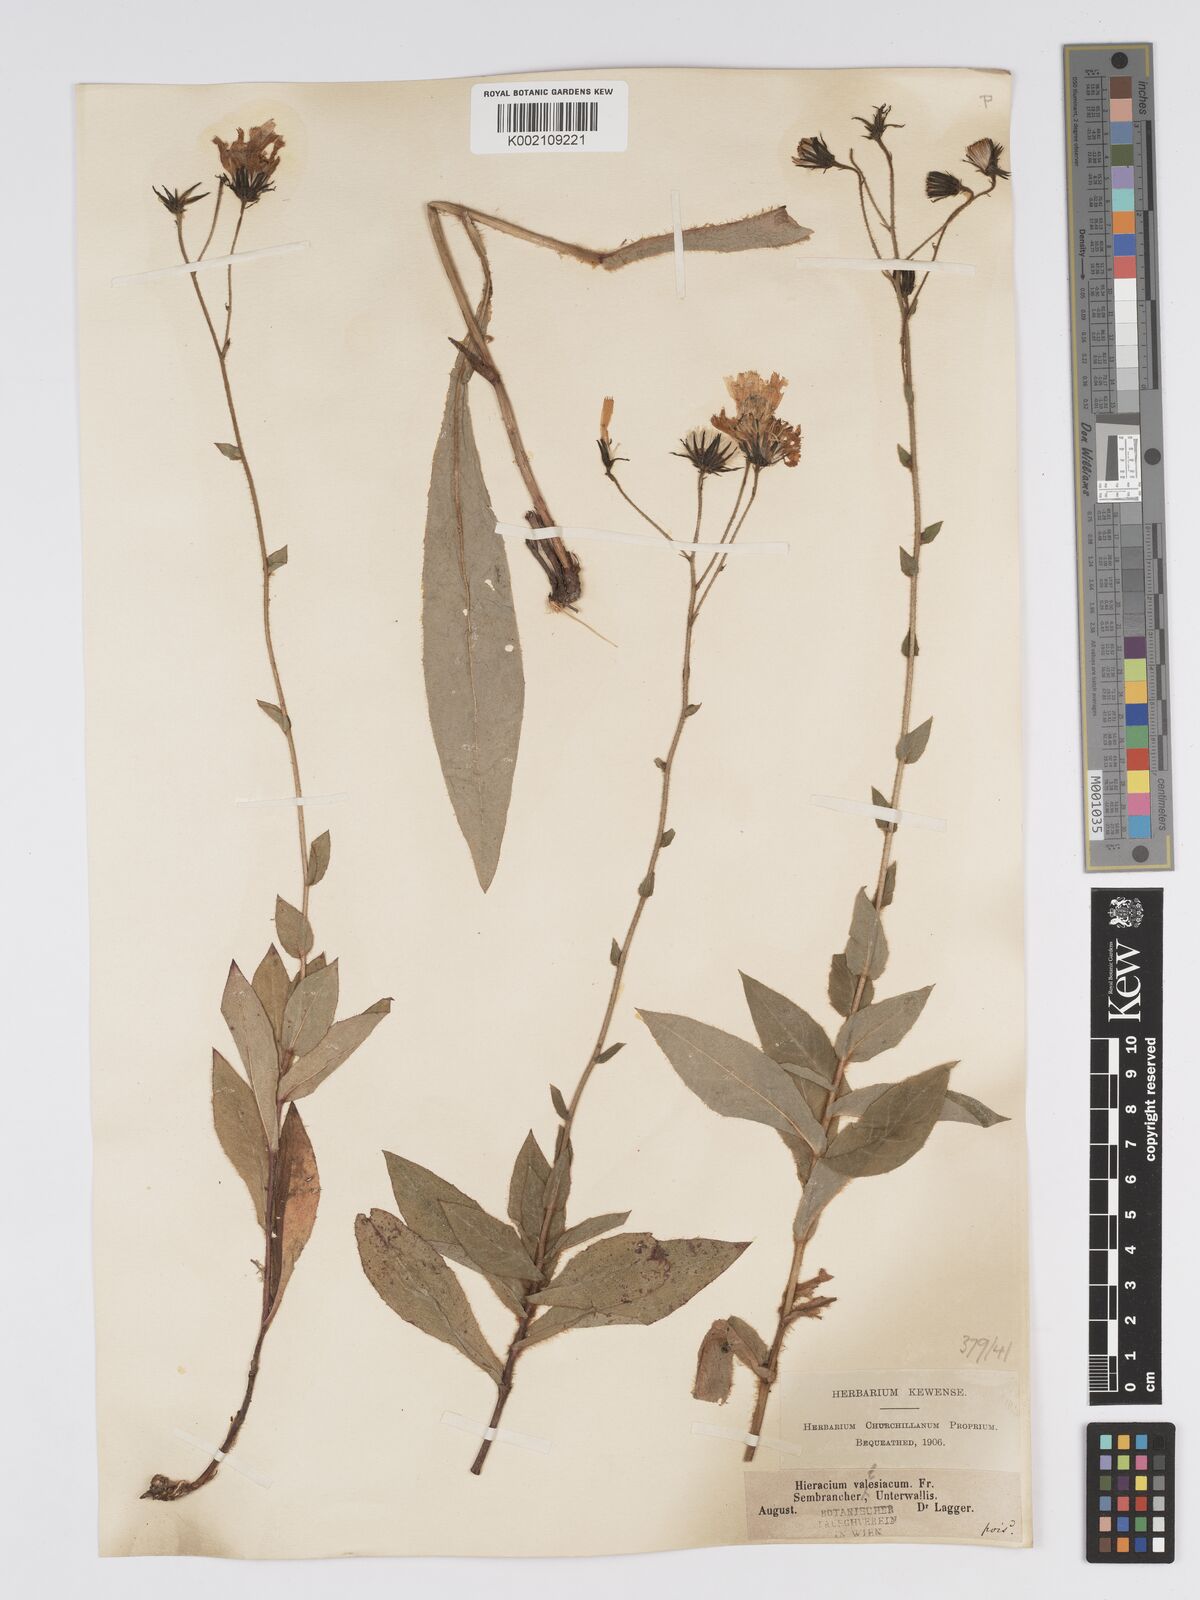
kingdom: Plantae
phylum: Tracheophyta
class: Magnoliopsida
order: Asterales
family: Asteraceae
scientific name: Asteraceae
